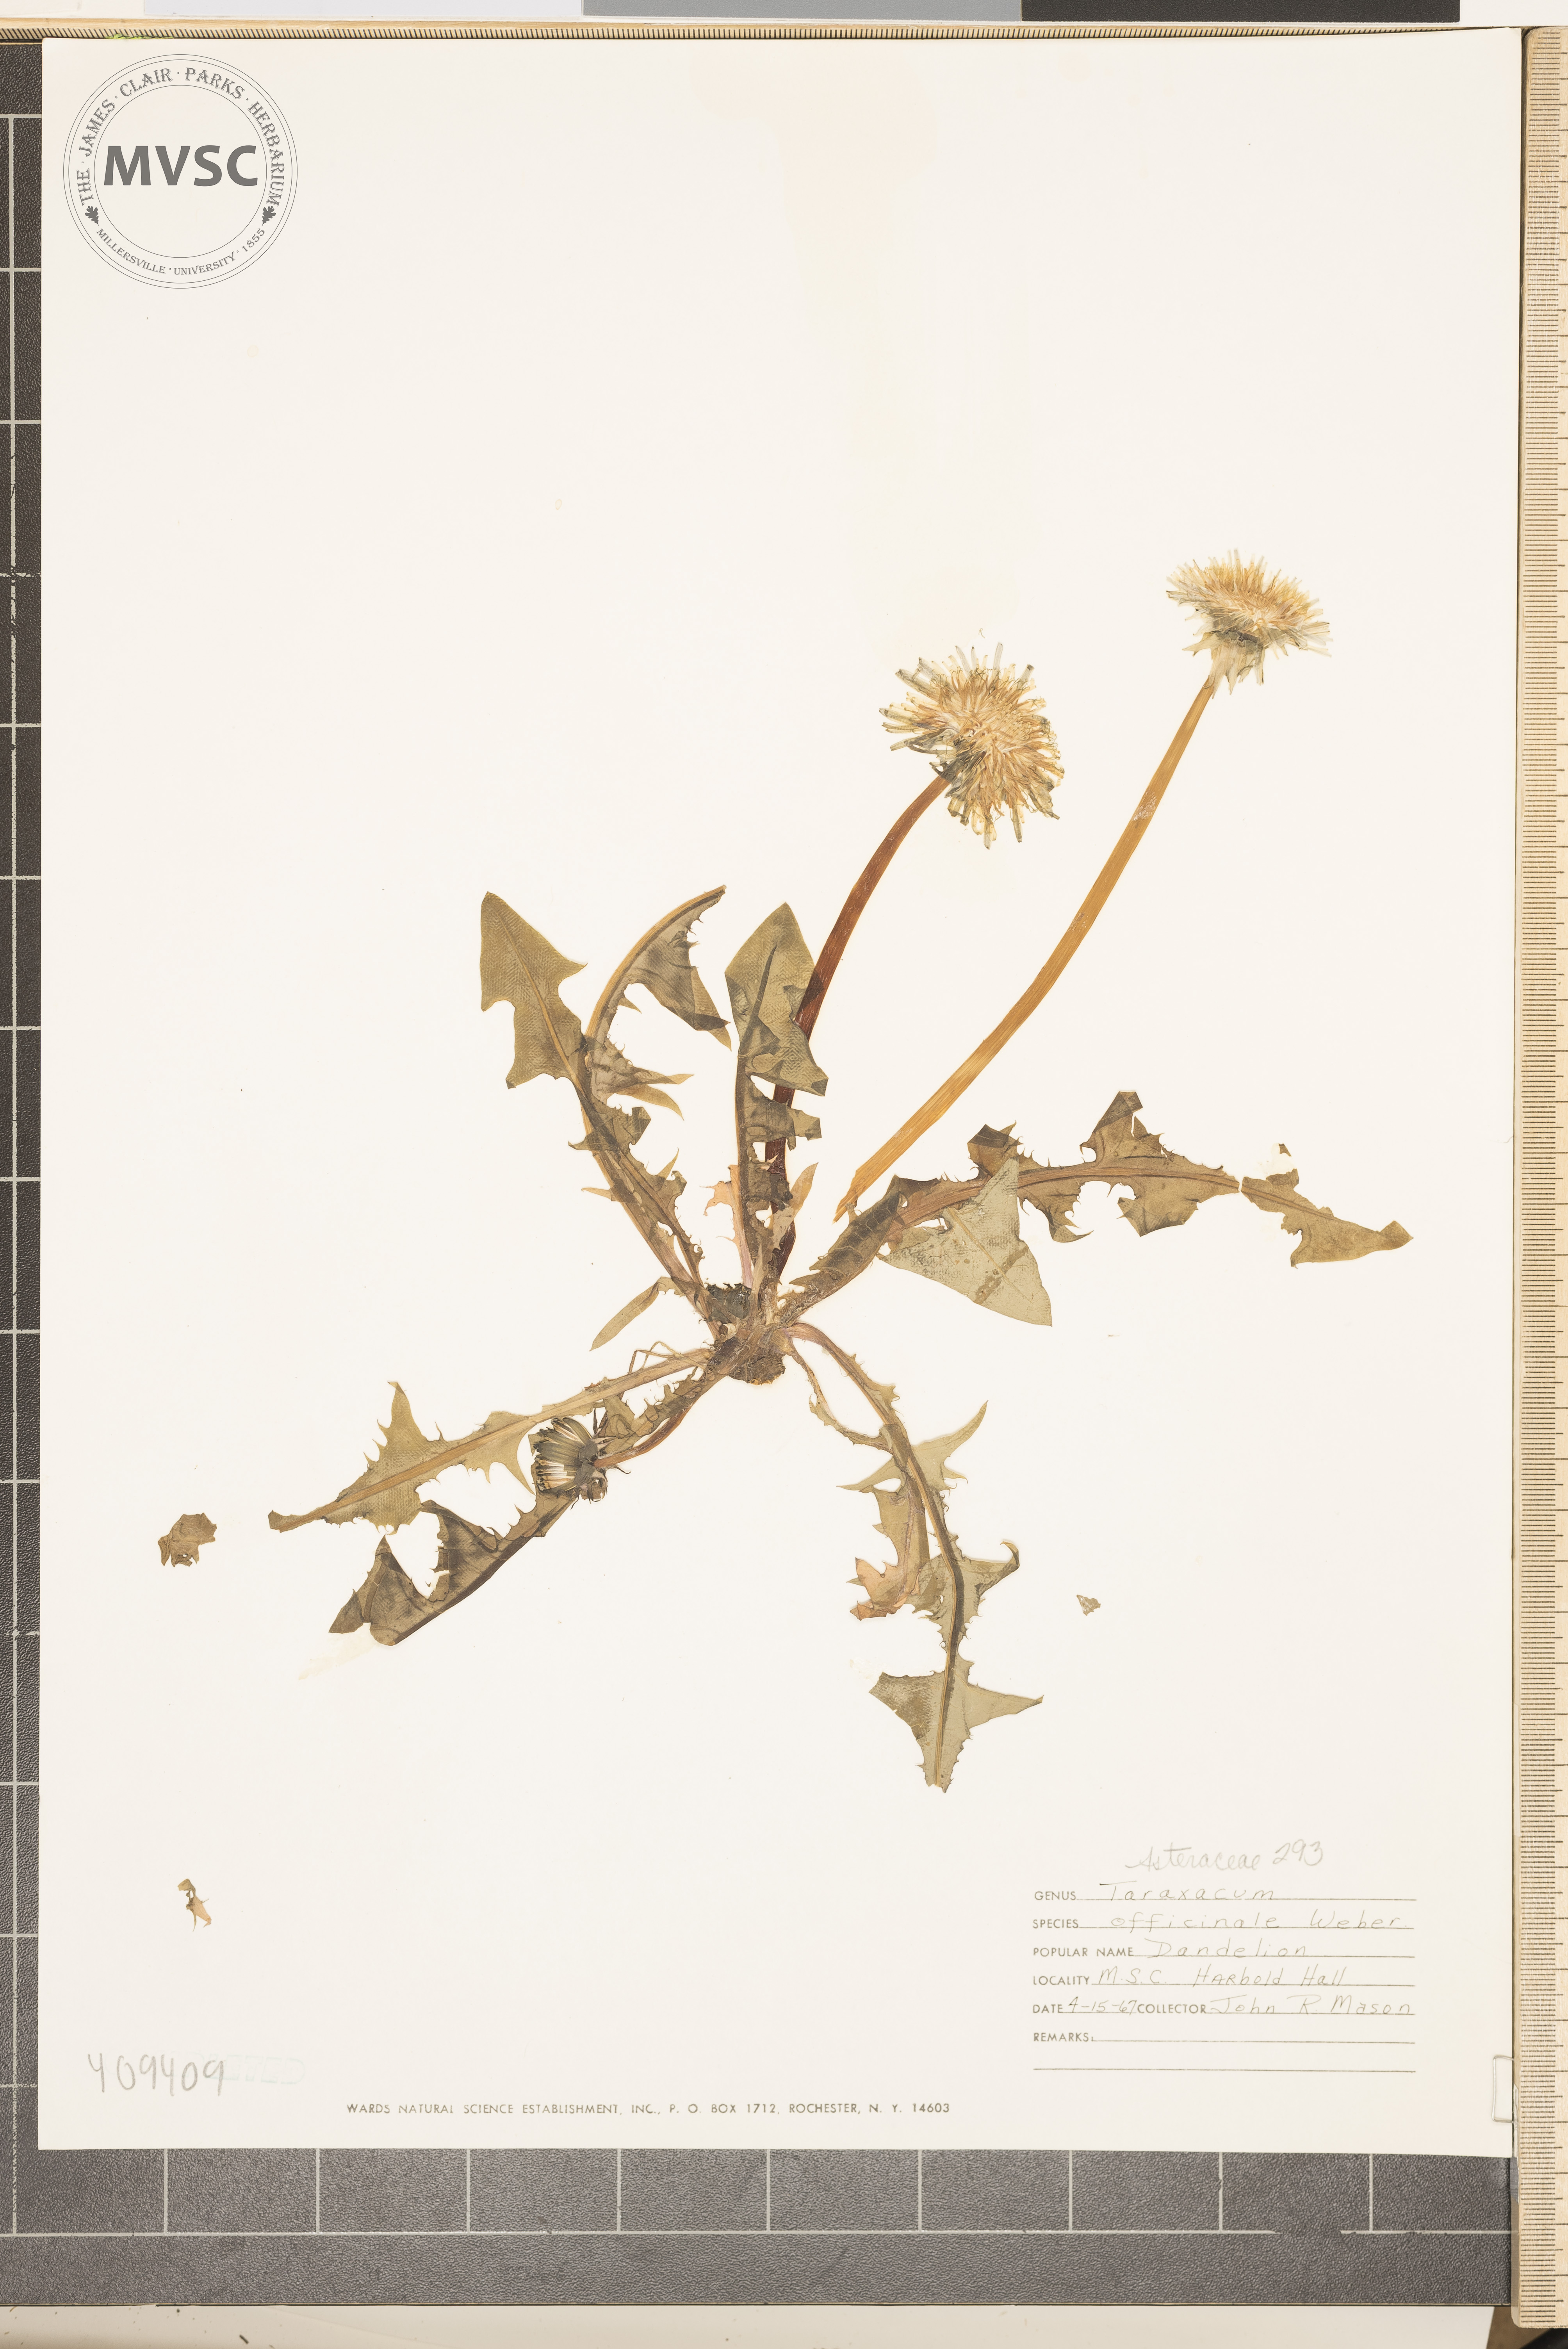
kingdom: Plantae
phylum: Tracheophyta
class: Magnoliopsida
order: Asterales
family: Asteraceae
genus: Taraxacum
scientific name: Taraxacum officinale
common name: Common dandelion
